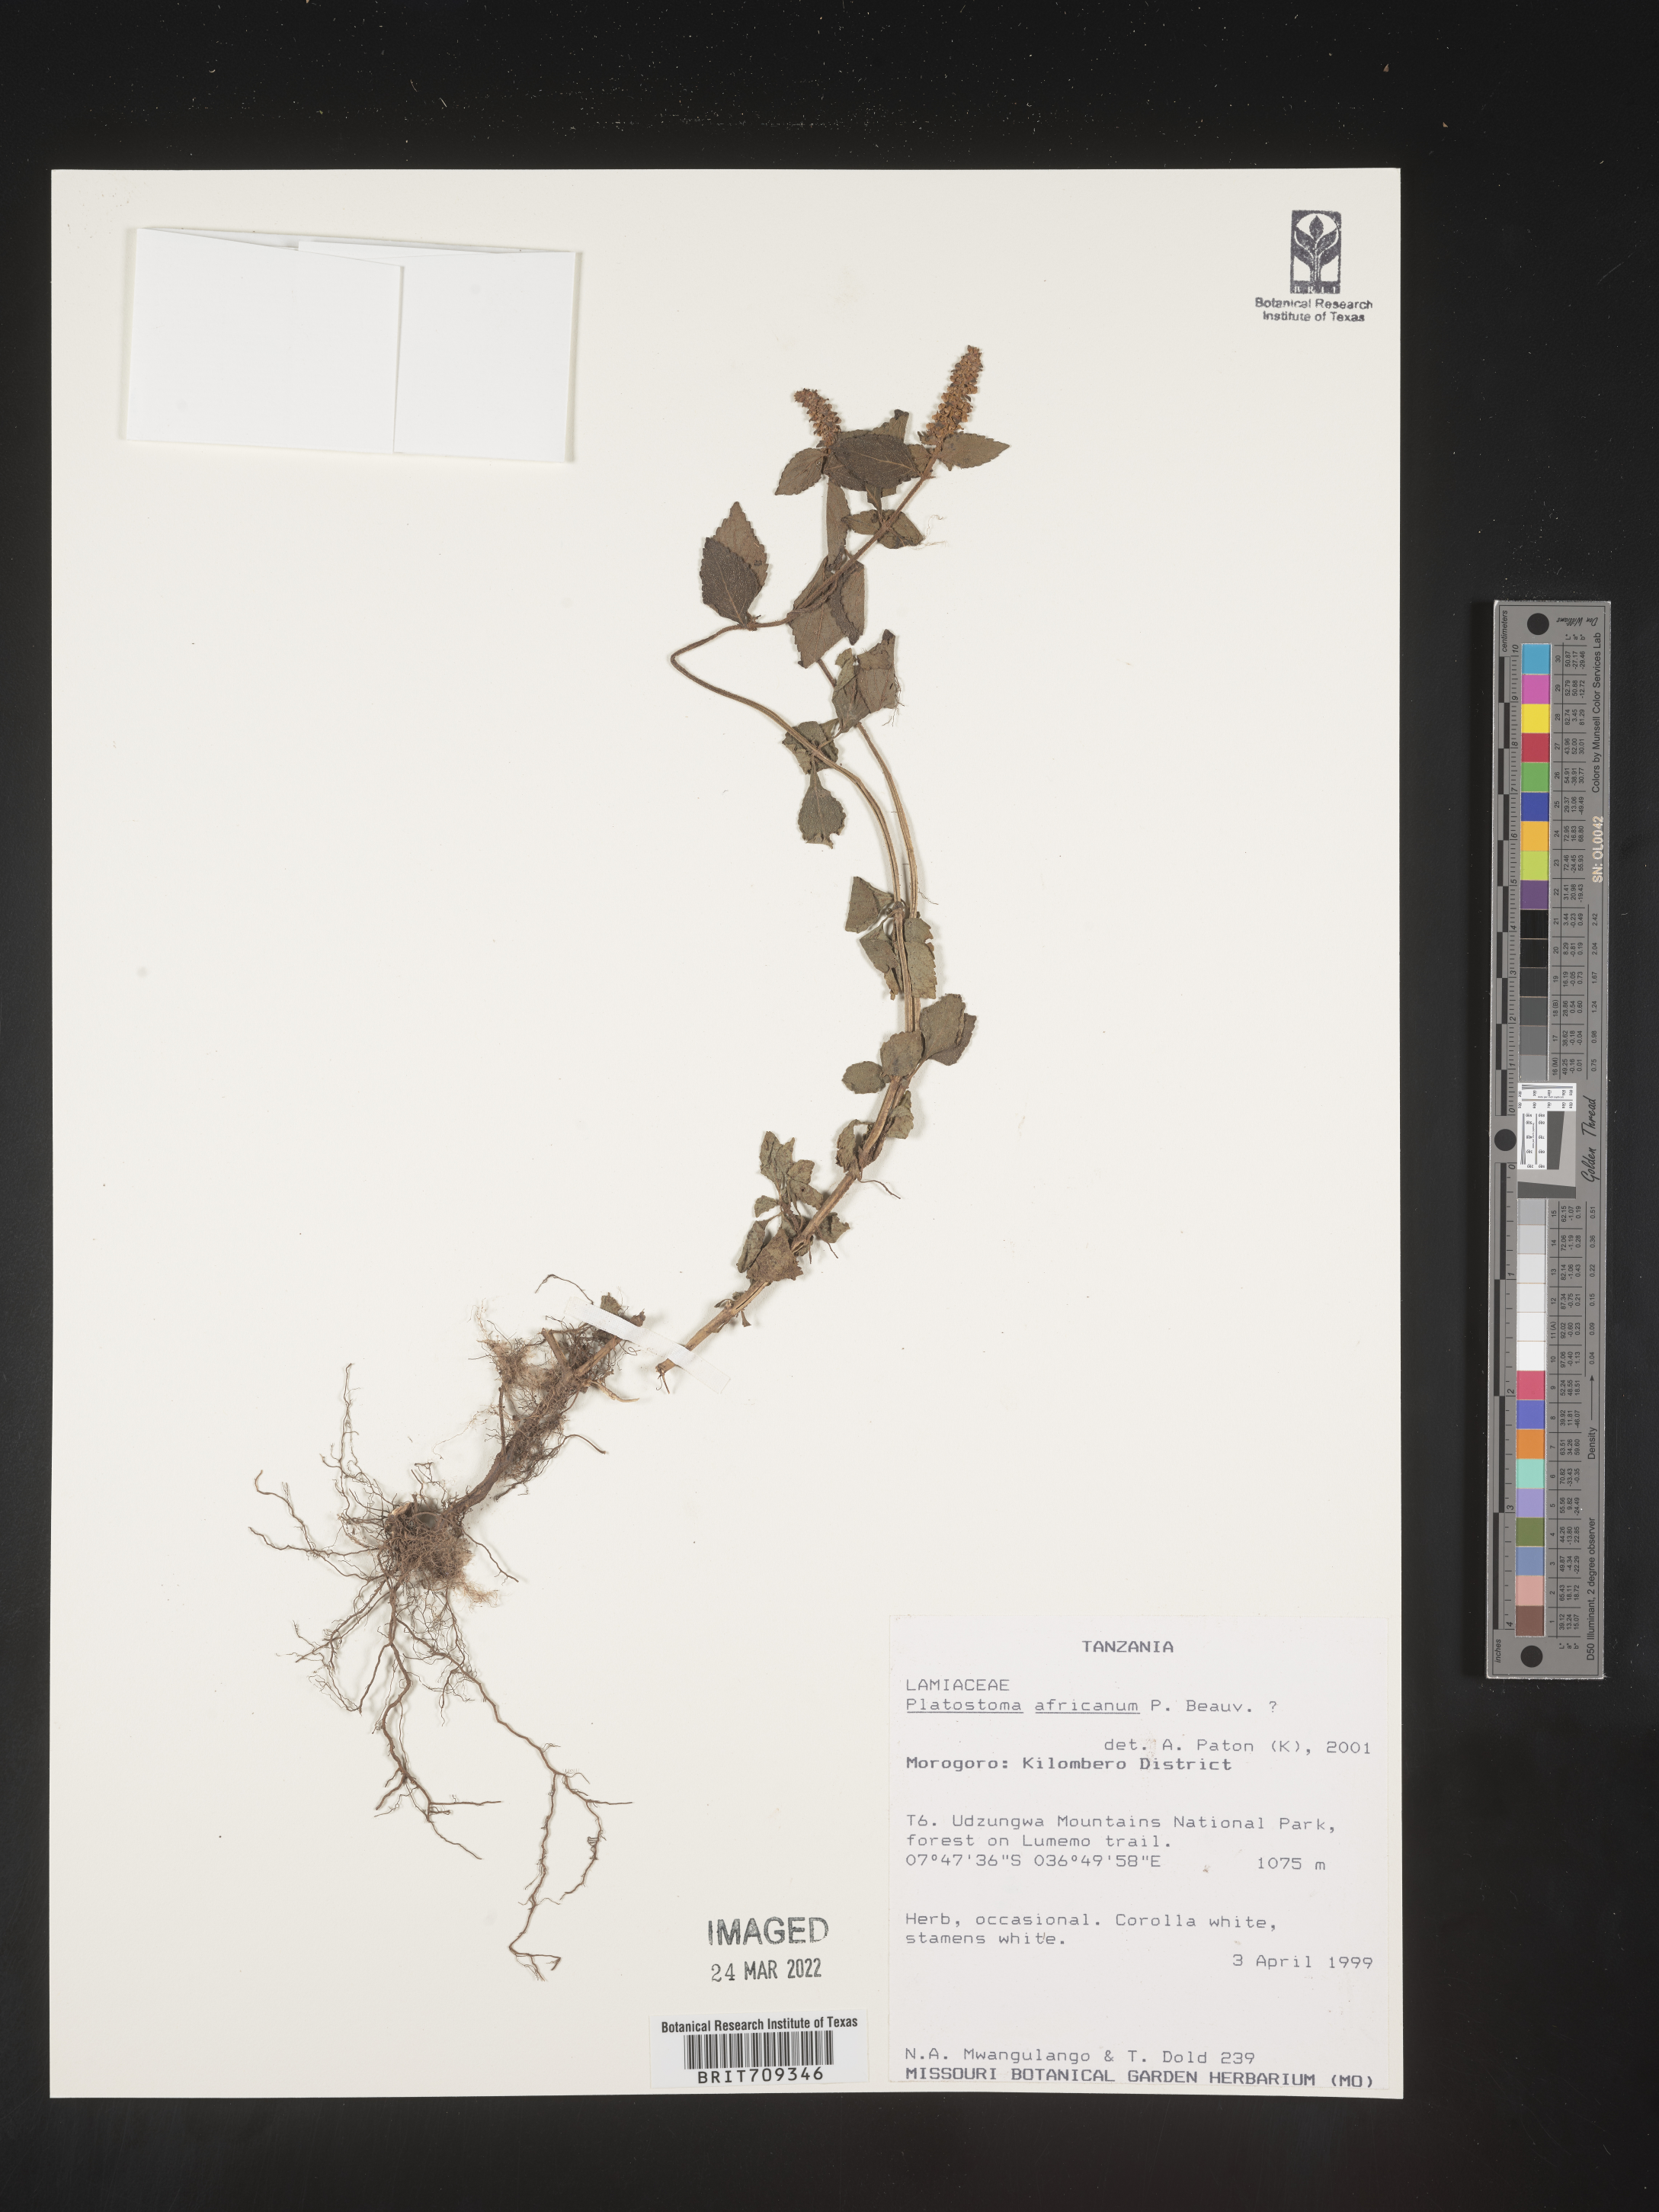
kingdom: Plantae
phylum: Tracheophyta
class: Magnoliopsida
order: Lamiales
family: Lamiaceae
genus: Platystoma
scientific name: Platystoma
